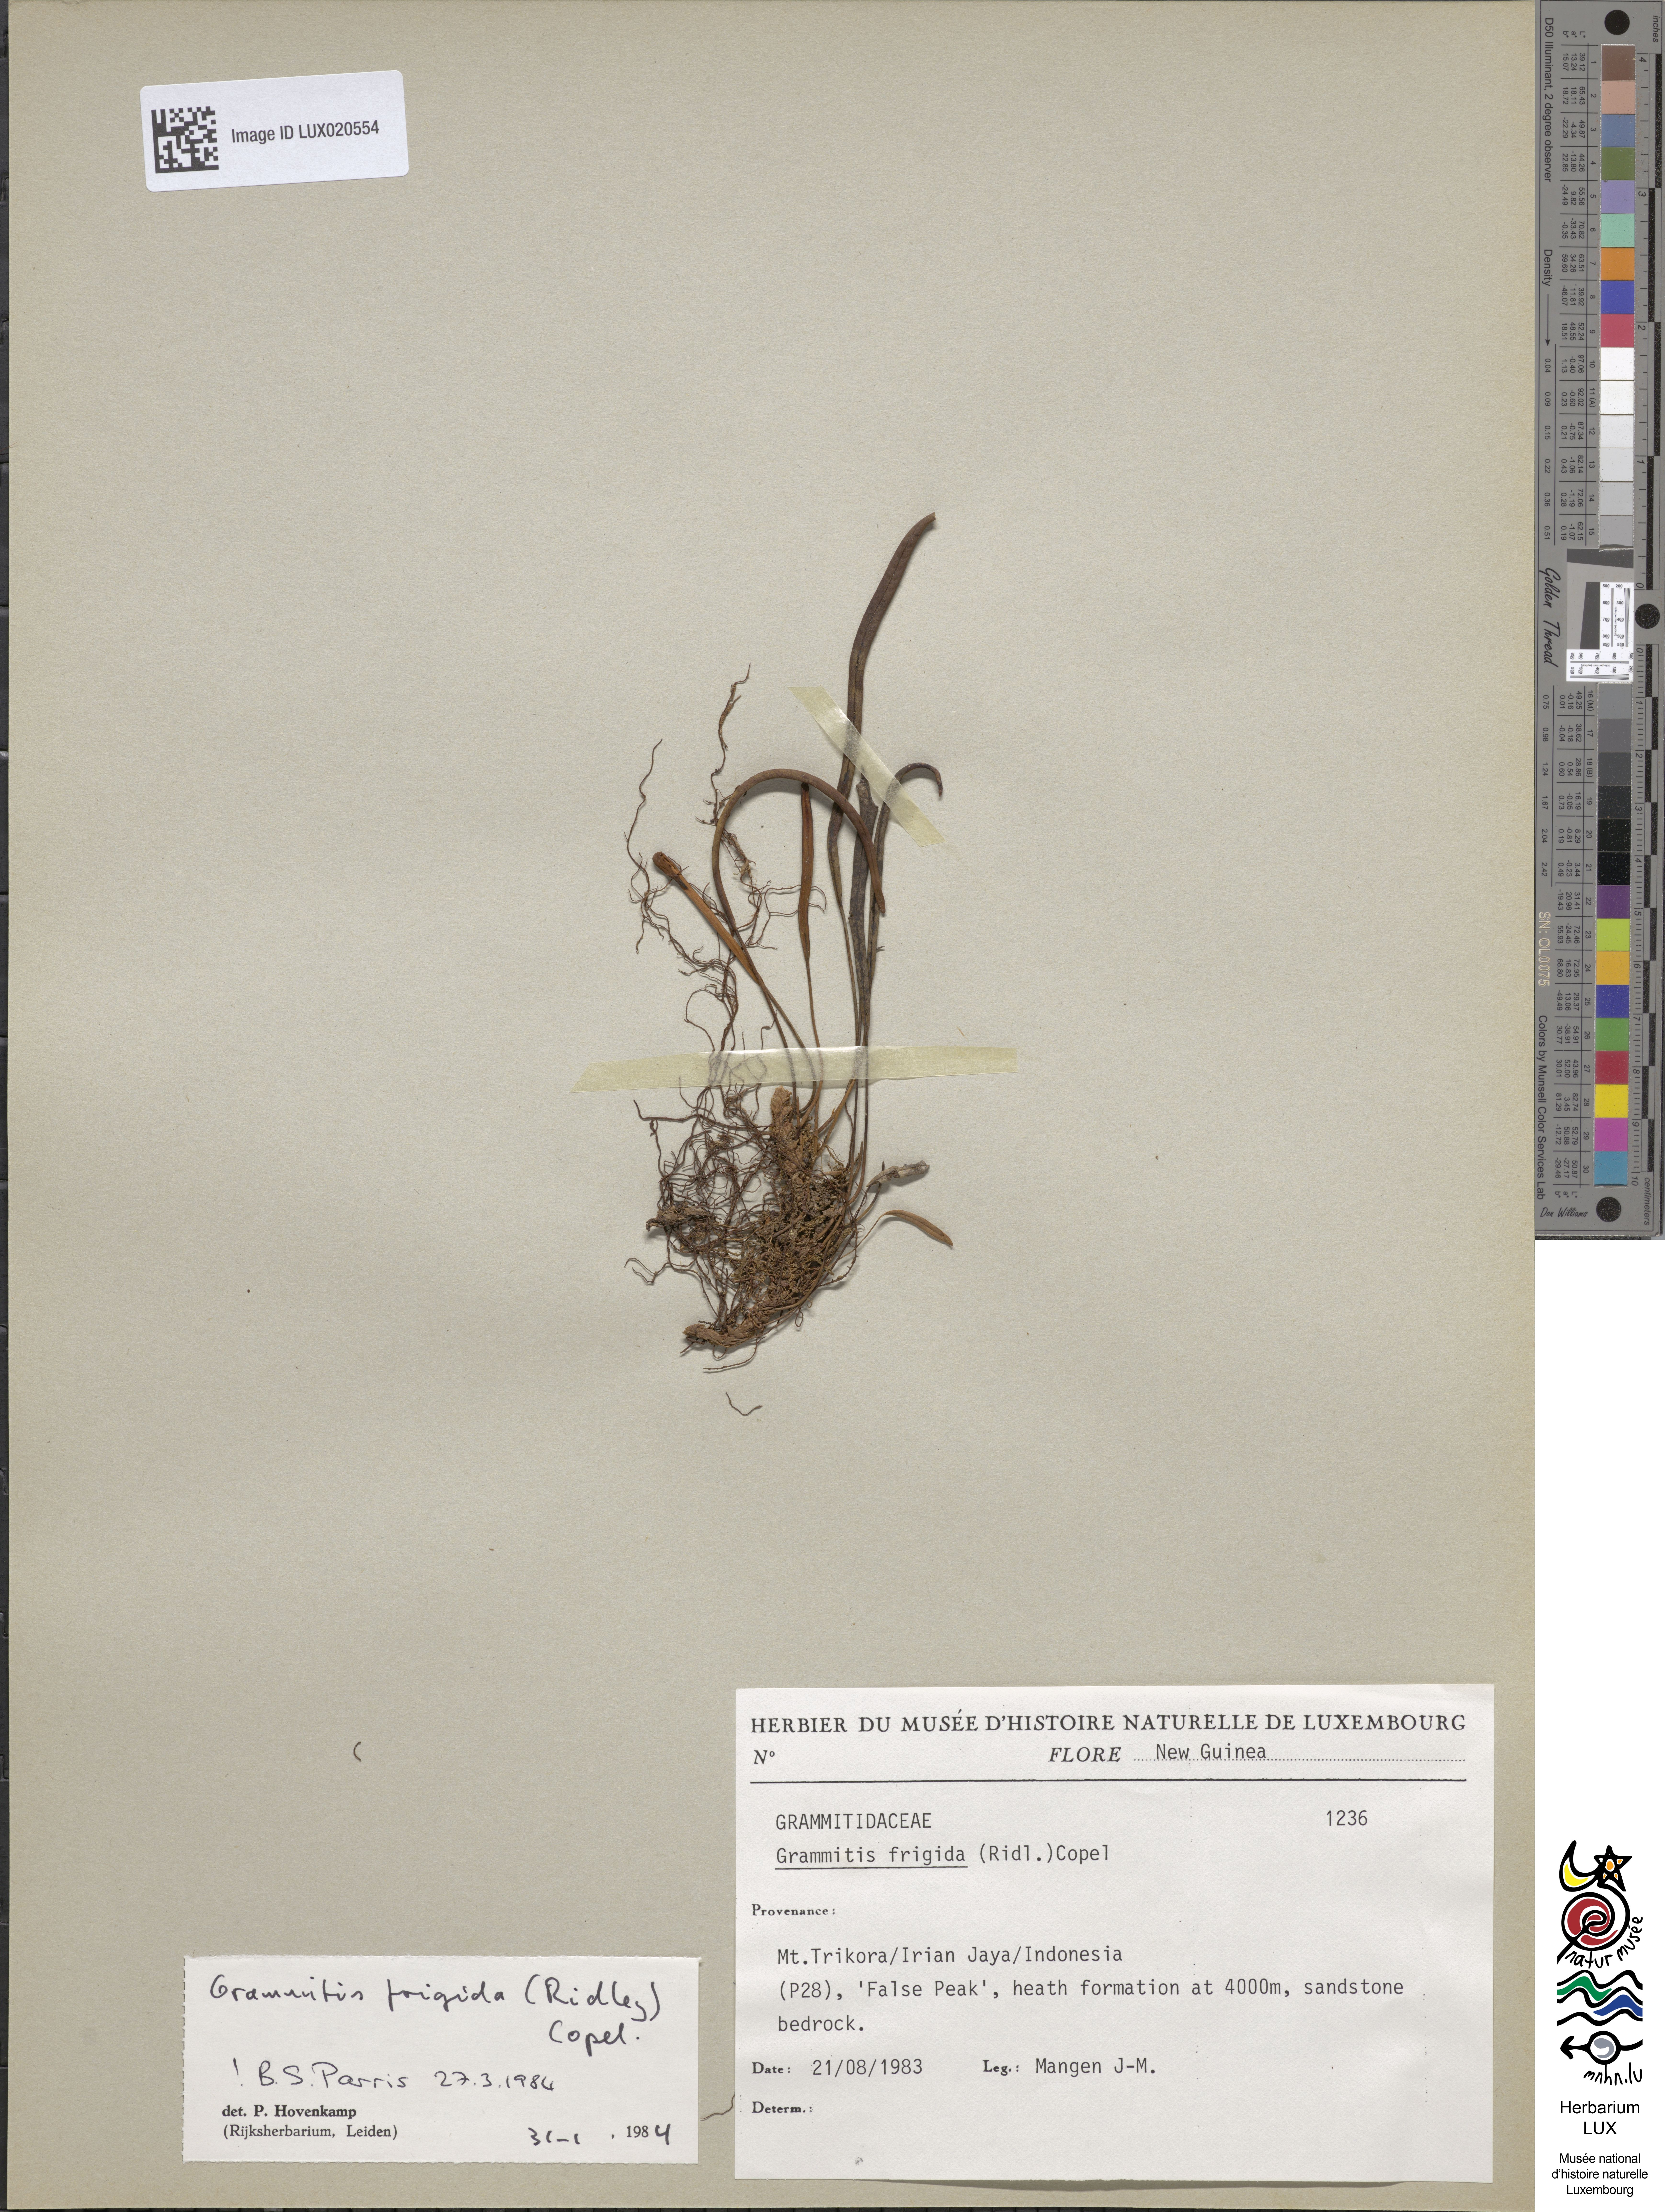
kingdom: Plantae
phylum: Tracheophyta
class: Polypodiopsida
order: Polypodiales
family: Polypodiaceae
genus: Oreogrammitis
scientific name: Oreogrammitis frigida
